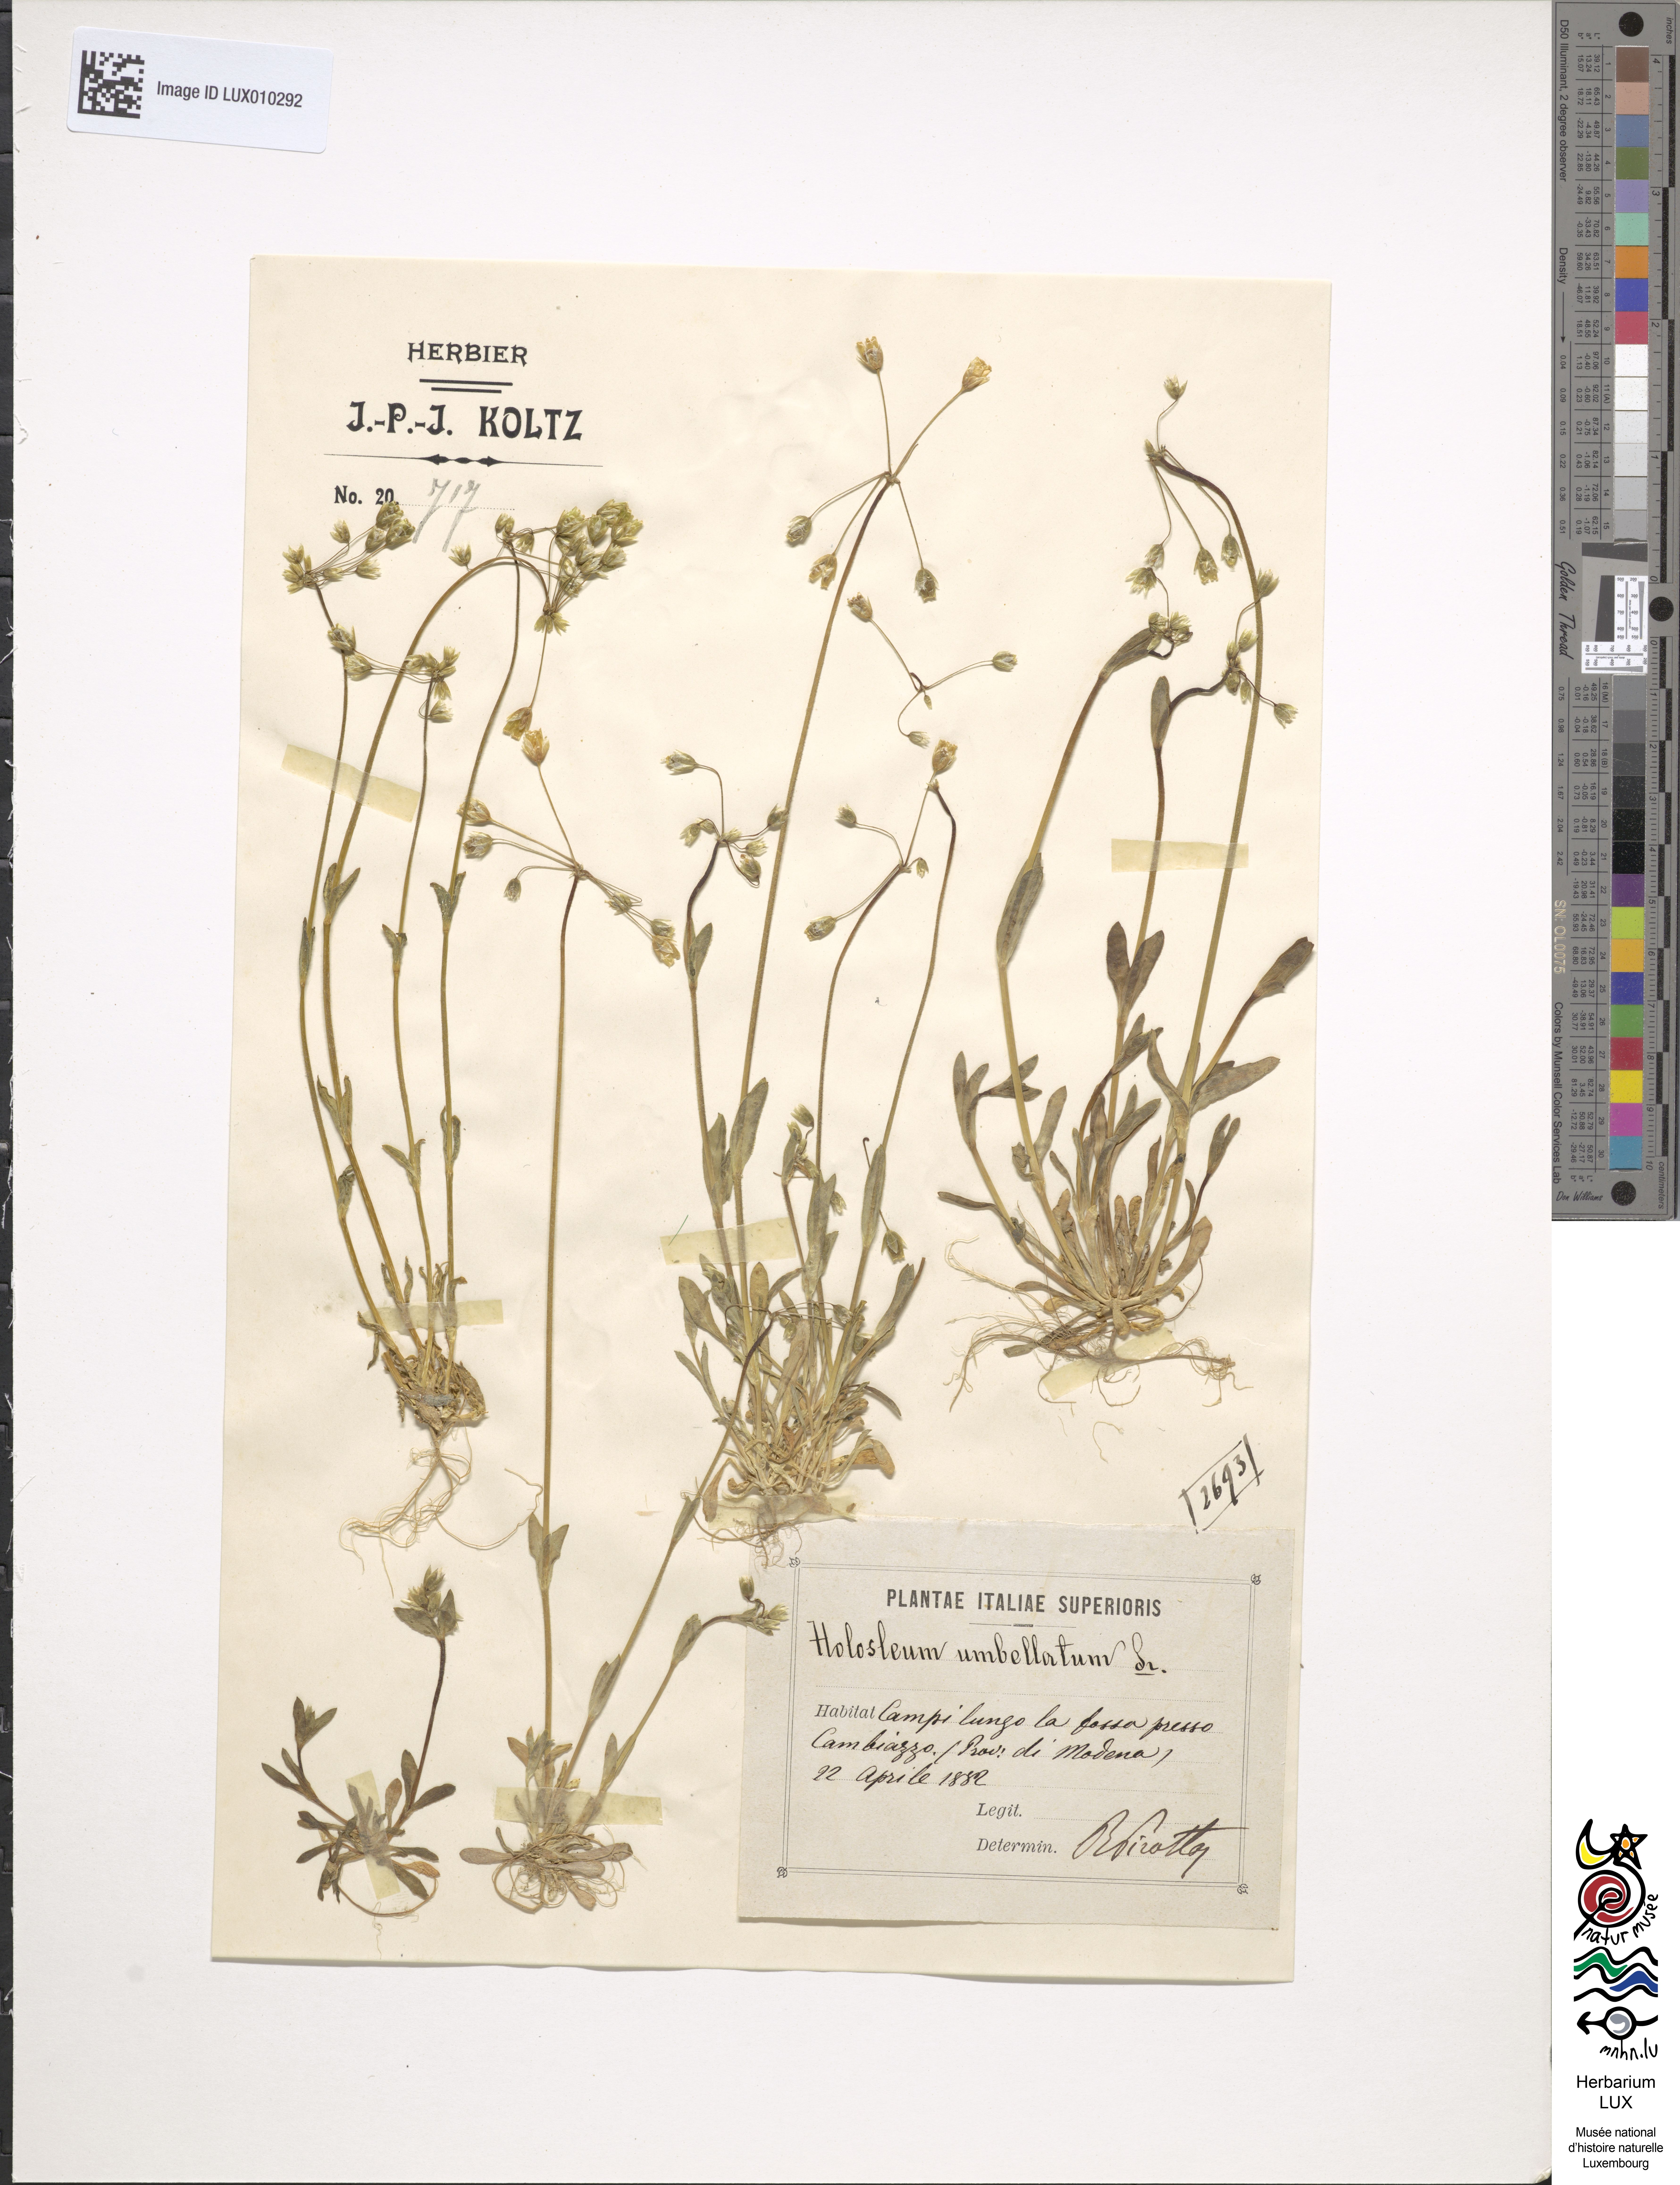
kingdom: Plantae
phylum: Tracheophyta
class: Magnoliopsida
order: Caryophyllales
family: Caryophyllaceae
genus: Holosteum
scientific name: Holosteum umbellatum
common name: Jagged chickweed
